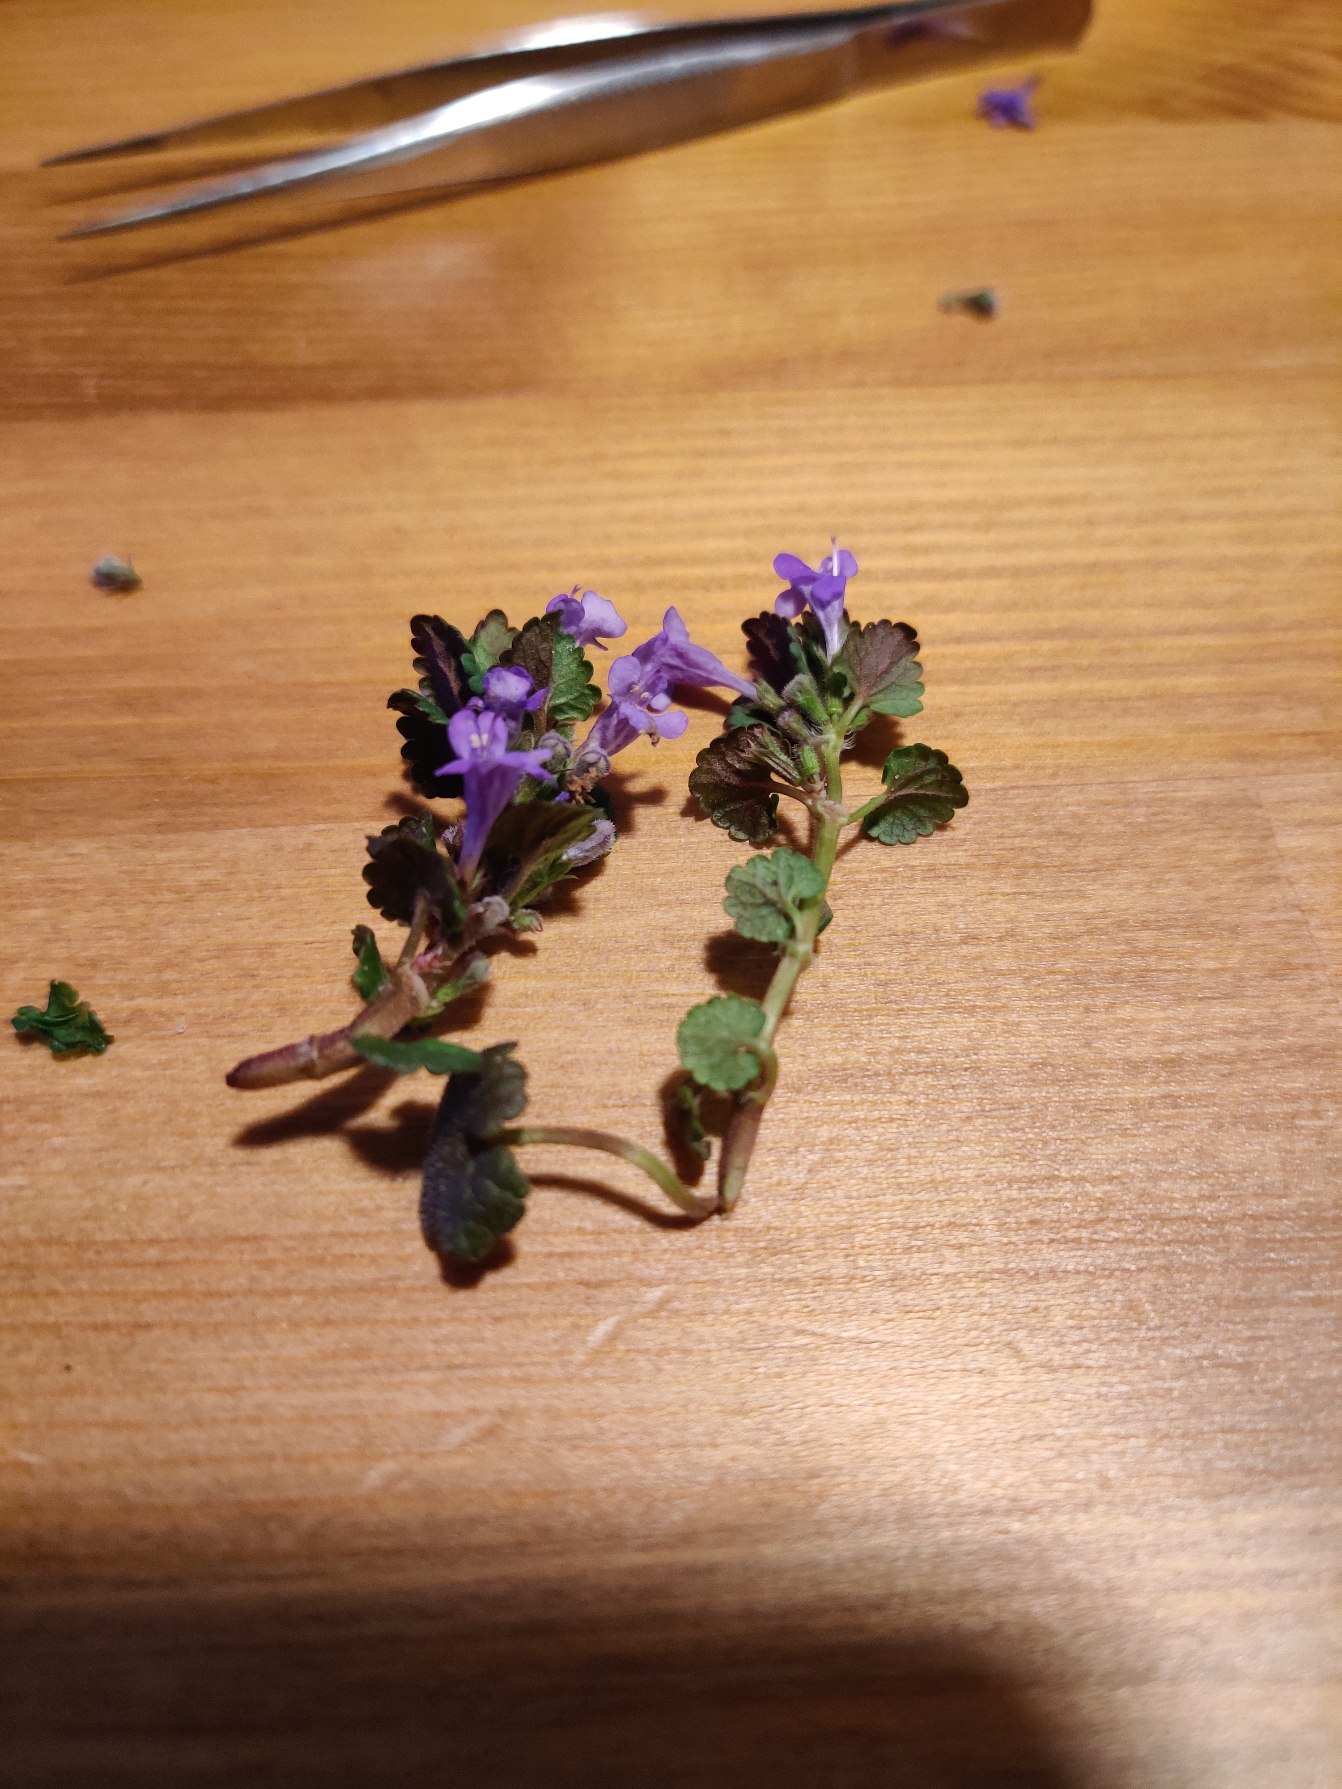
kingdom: Plantae
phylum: Tracheophyta
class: Magnoliopsida
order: Lamiales
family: Lamiaceae
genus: Glechoma
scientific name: Glechoma hederacea
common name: Korsknap
